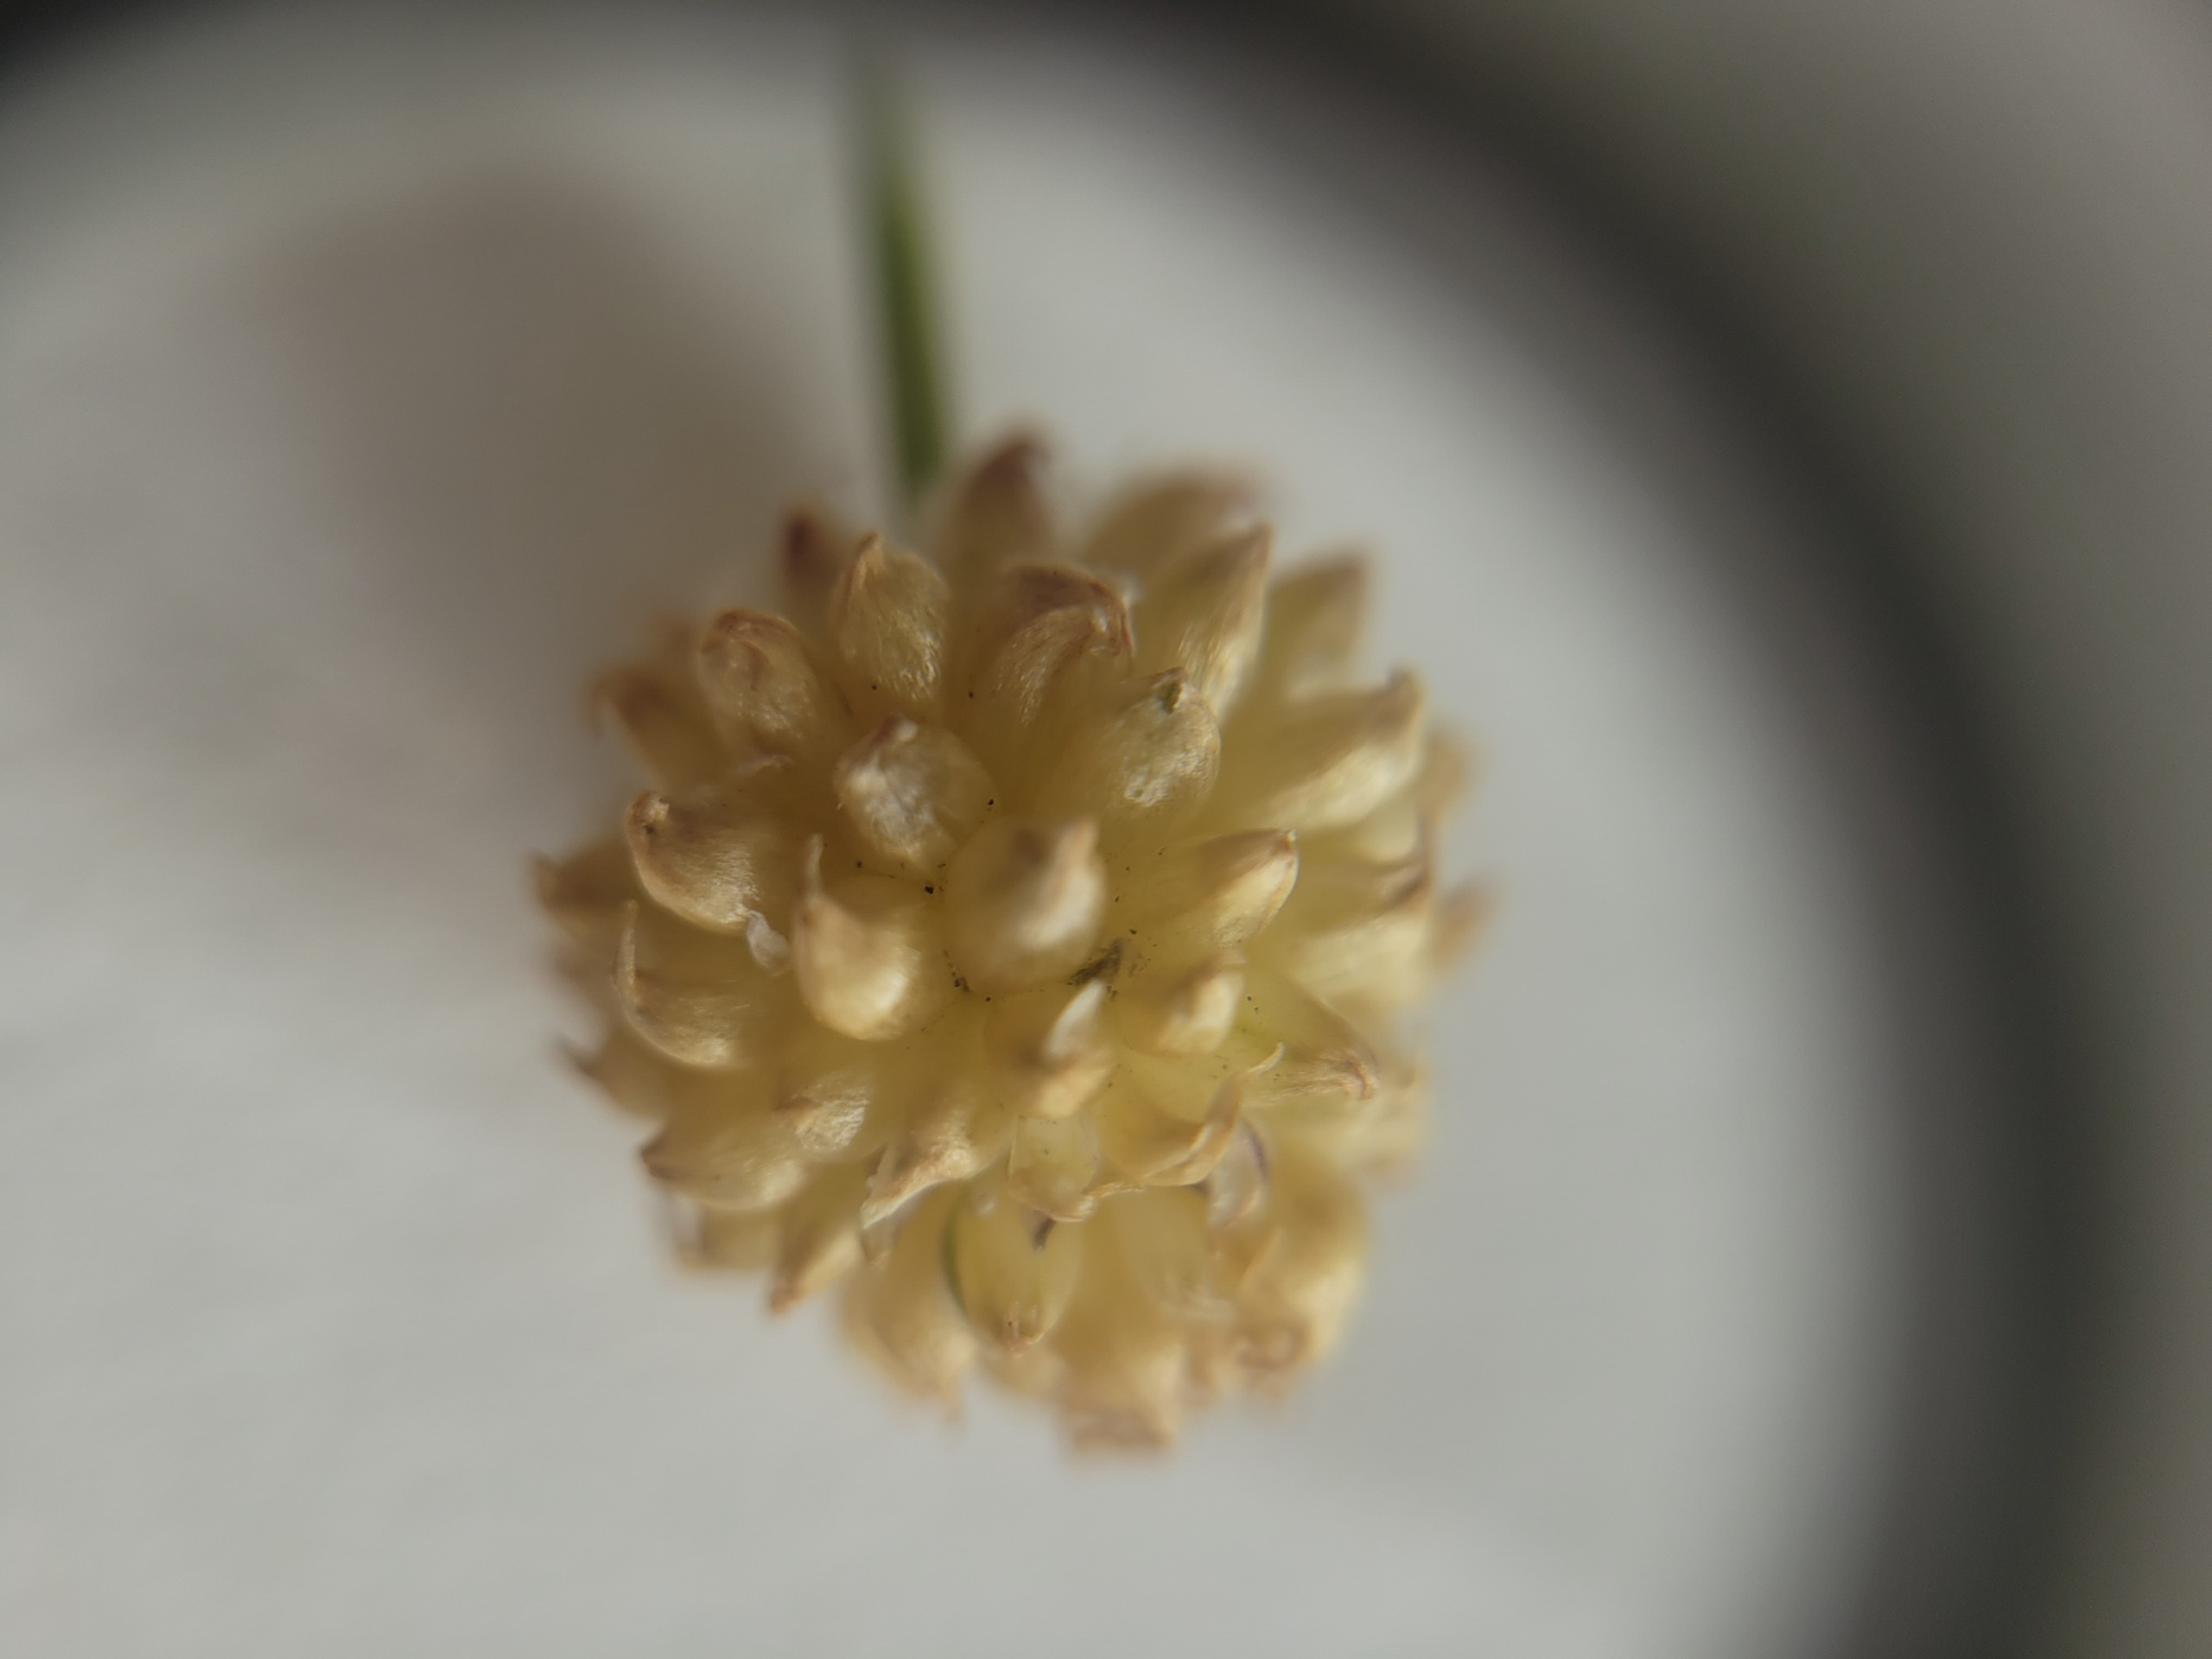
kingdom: Plantae
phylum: Tracheophyta
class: Liliopsida
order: Asparagales
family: Amaryllidaceae
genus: Allium
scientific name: Allium vineale
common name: Sand-løg
